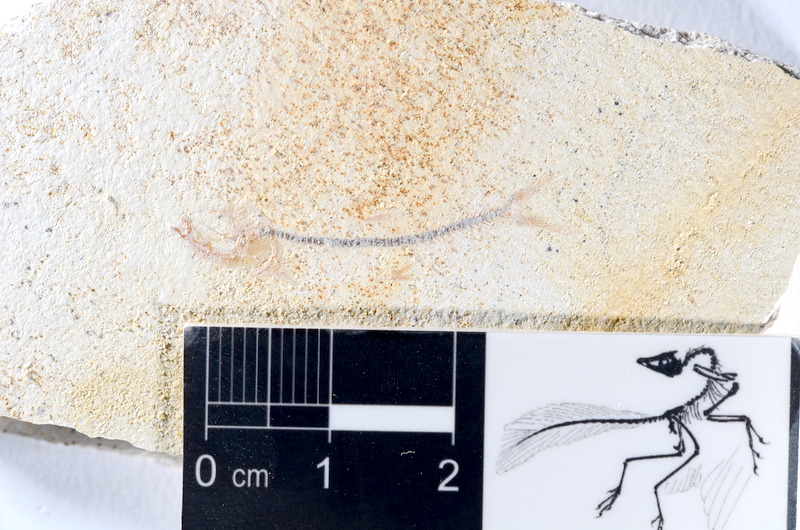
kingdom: Animalia
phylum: Chordata
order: Salmoniformes
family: Orthogonikleithridae
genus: Orthogonikleithrus
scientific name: Orthogonikleithrus hoelli
